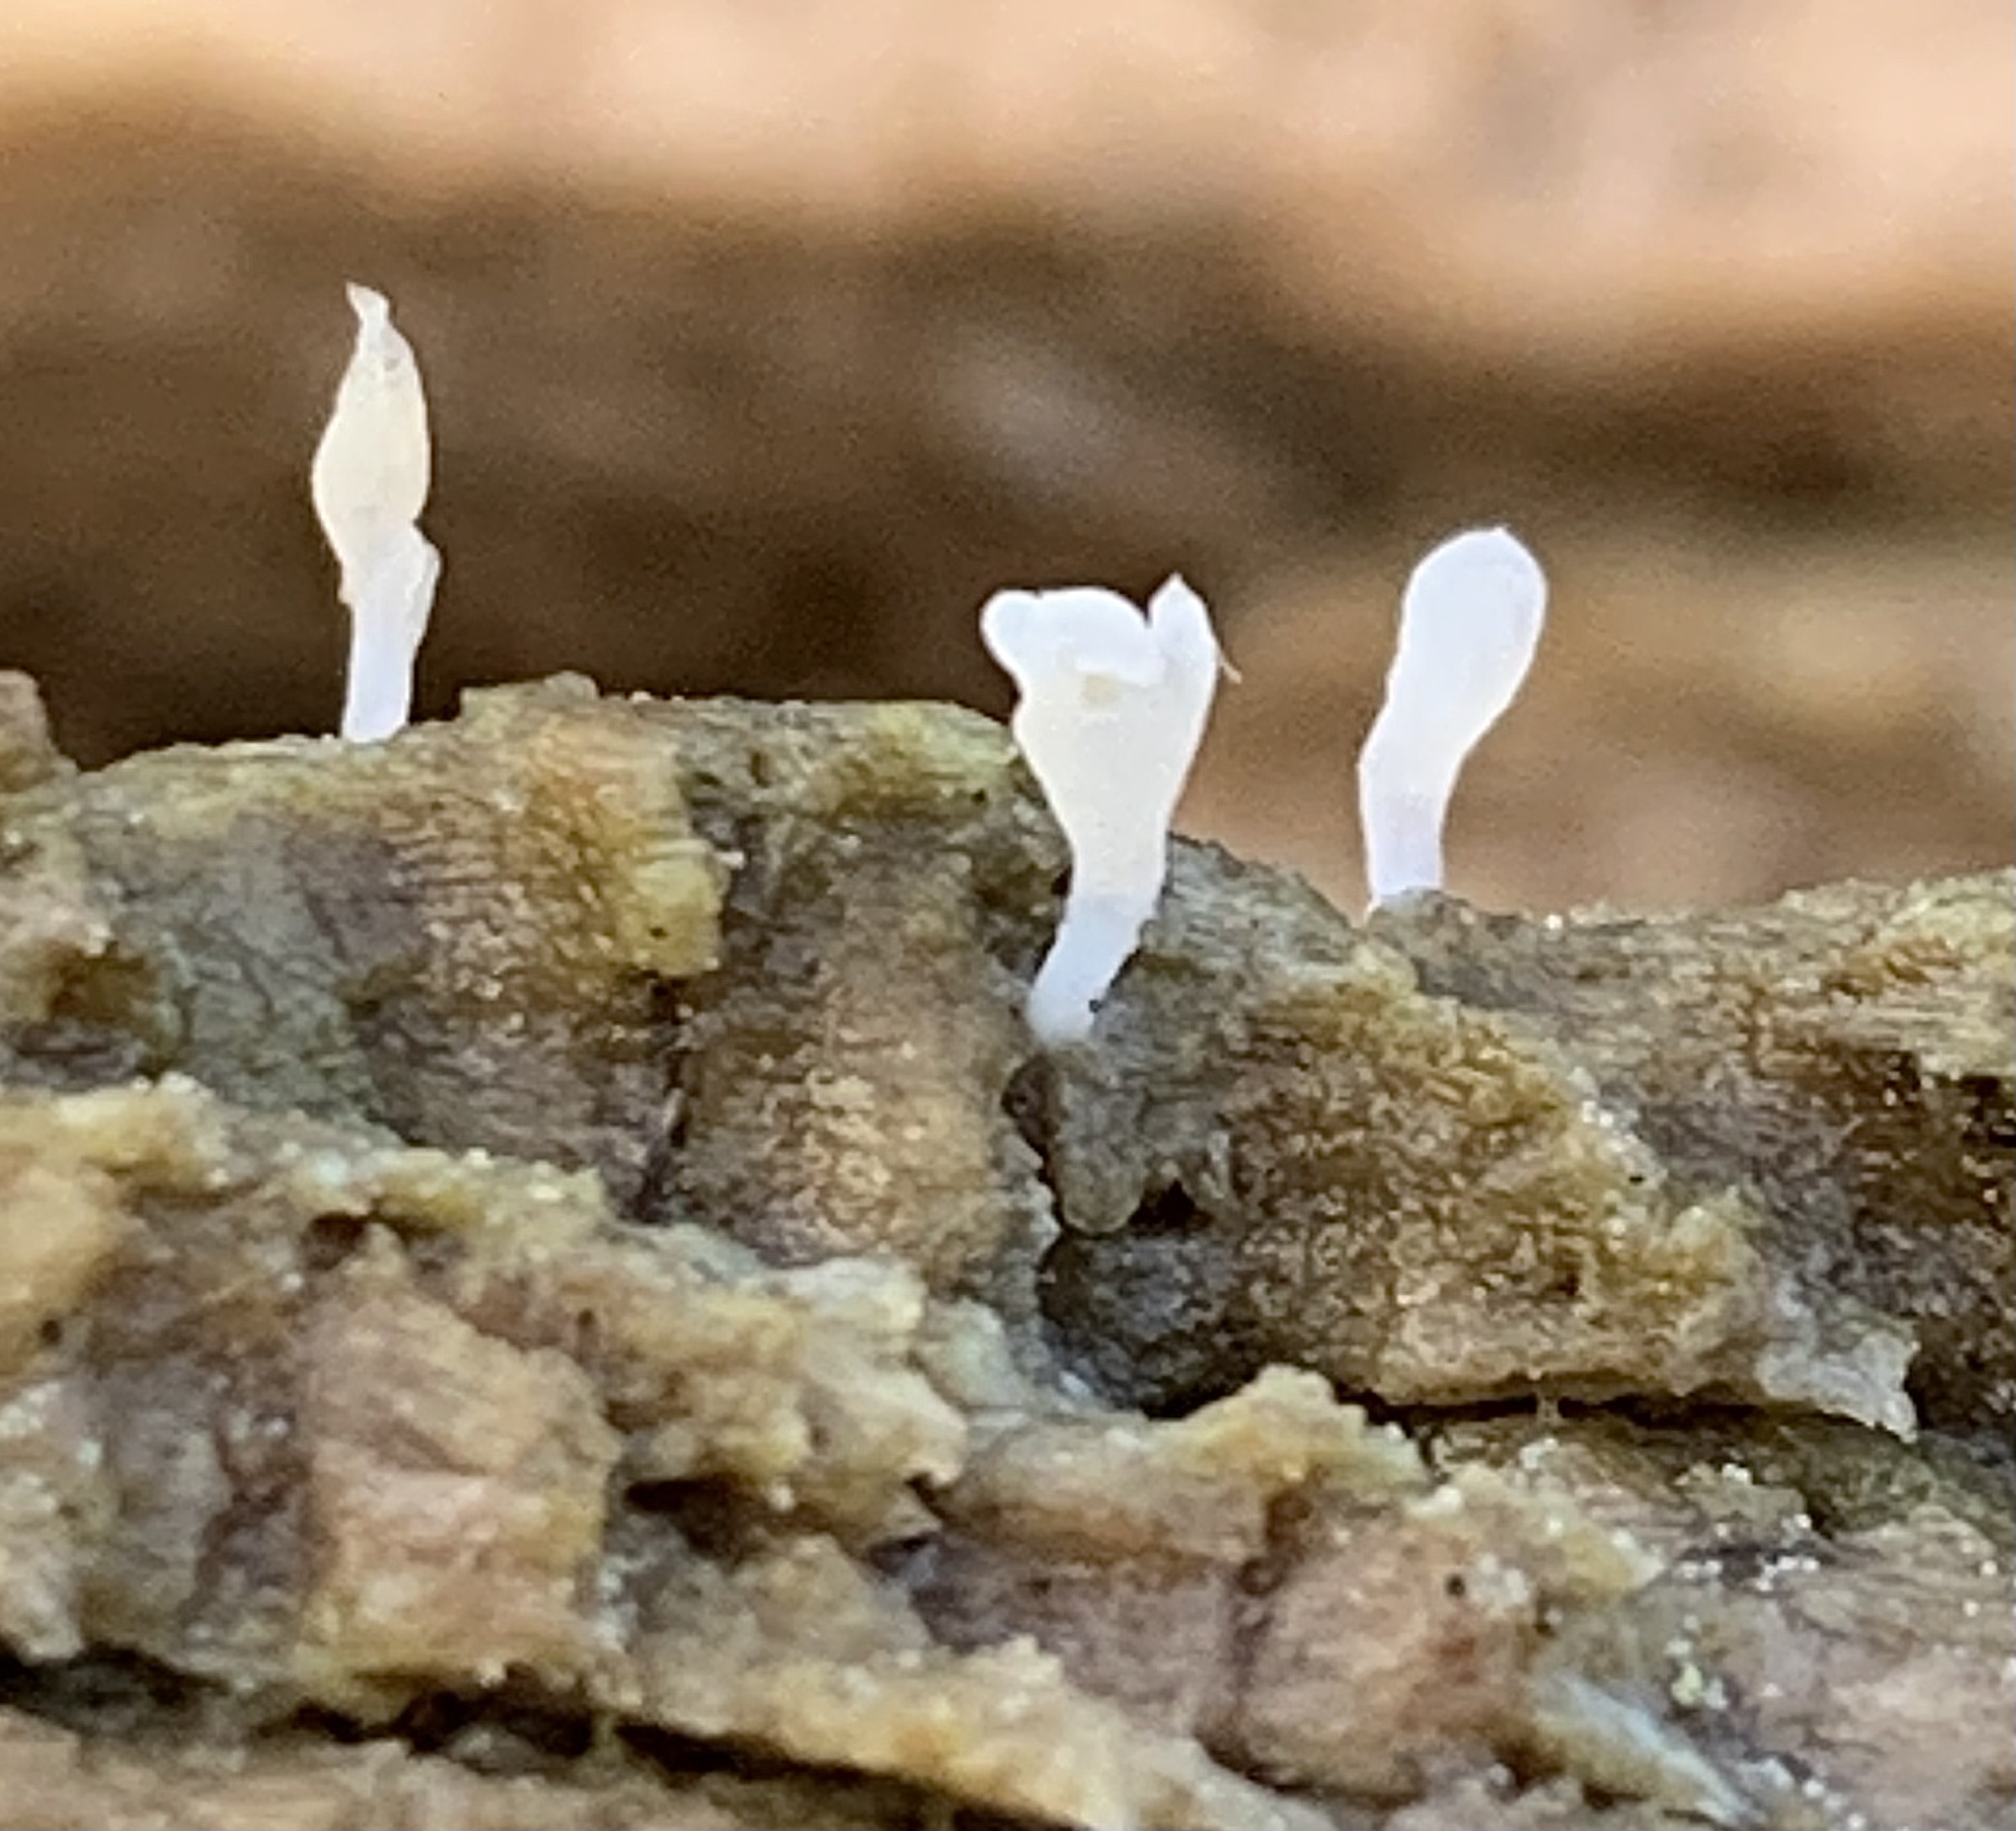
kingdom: Fungi
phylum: Basidiomycota
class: Agaricomycetes
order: Cantharellales
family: Hydnaceae
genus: Multiclavula
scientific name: Multiclavula mucida
